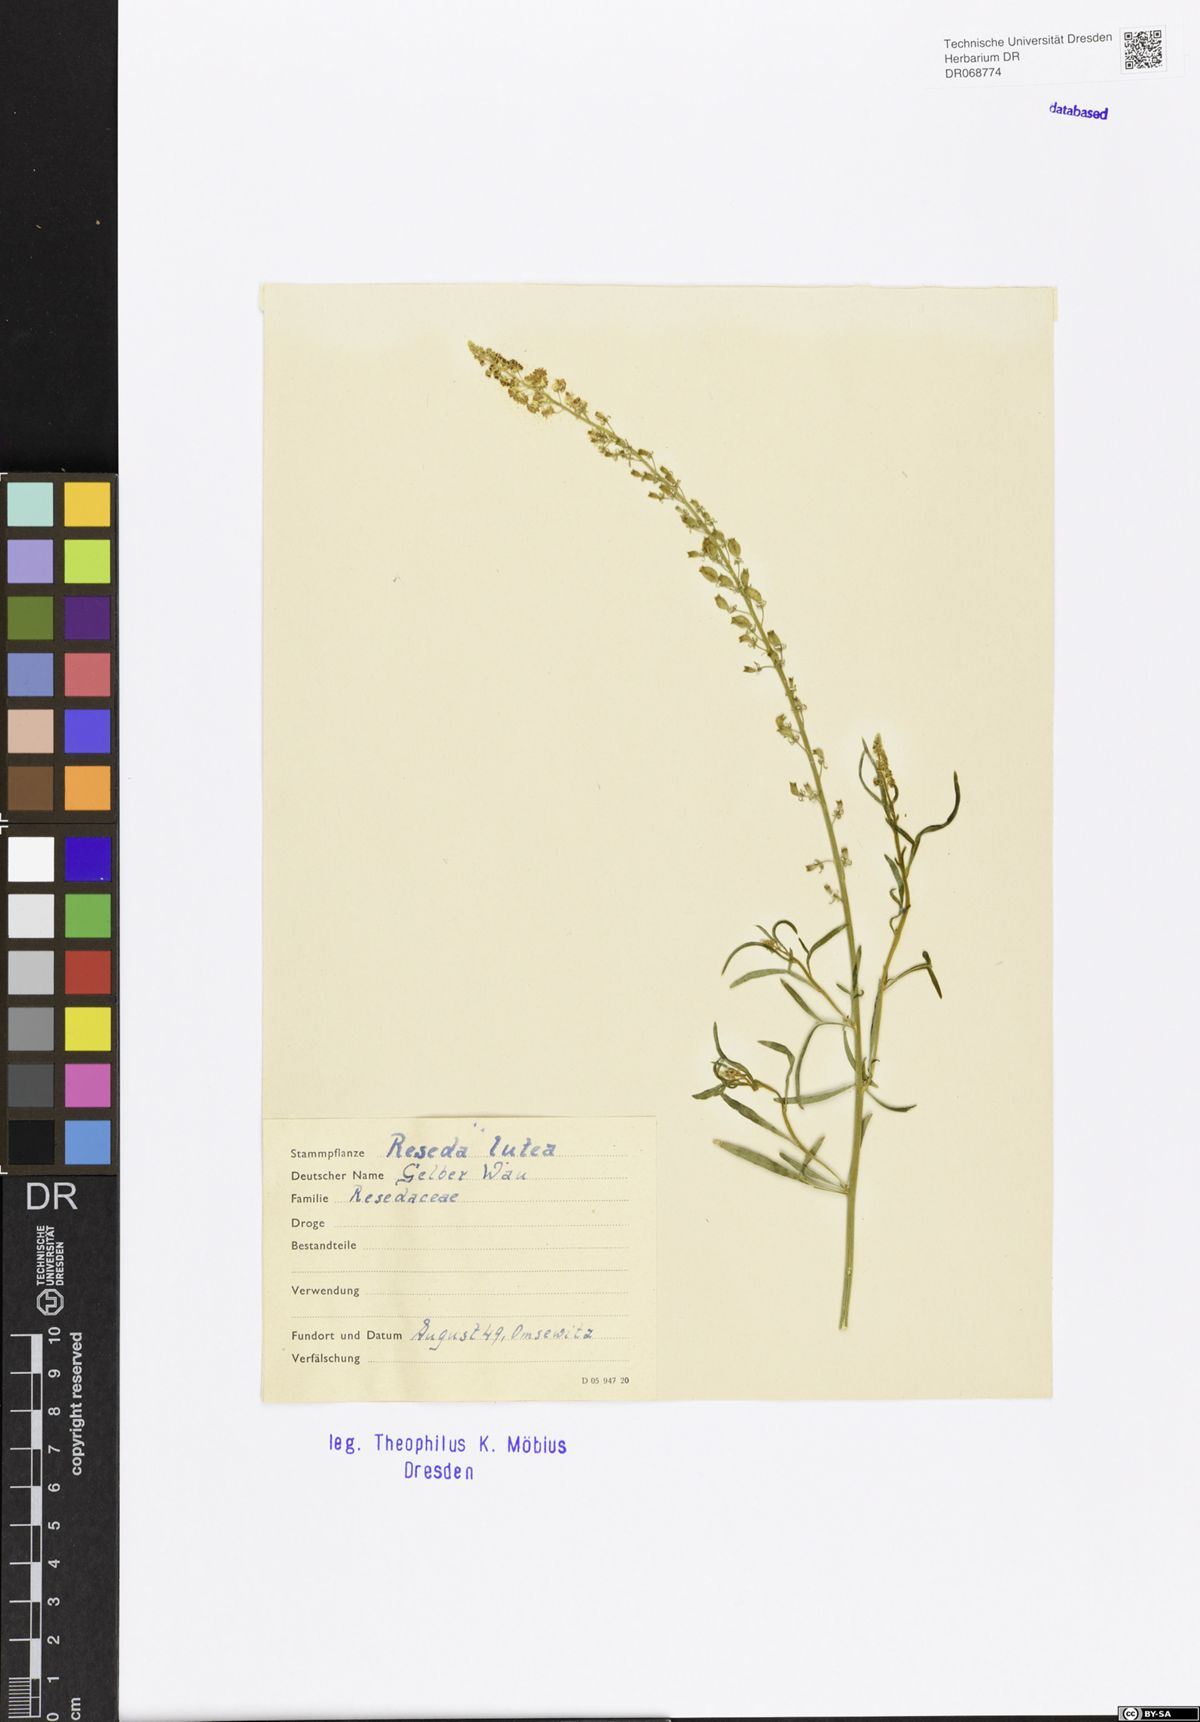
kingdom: Plantae
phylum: Tracheophyta
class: Magnoliopsida
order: Brassicales
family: Resedaceae
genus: Reseda
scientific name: Reseda lutea
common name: Wild mignonette
